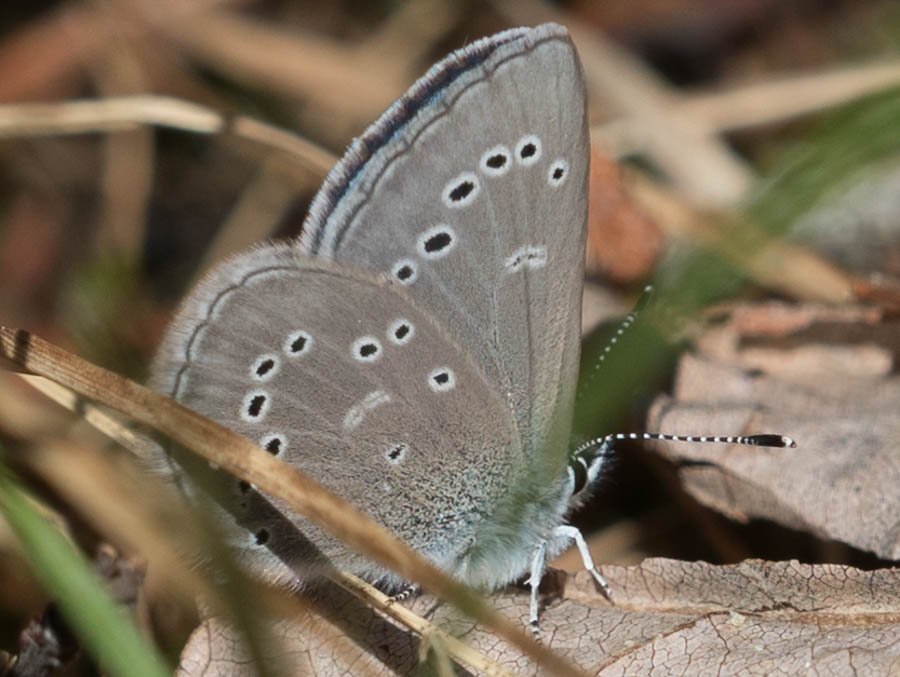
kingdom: Animalia
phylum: Arthropoda
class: Insecta
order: Lepidoptera
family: Lycaenidae
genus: Glaucopsyche
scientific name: Glaucopsyche lygdamus
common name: Silvery Blue
